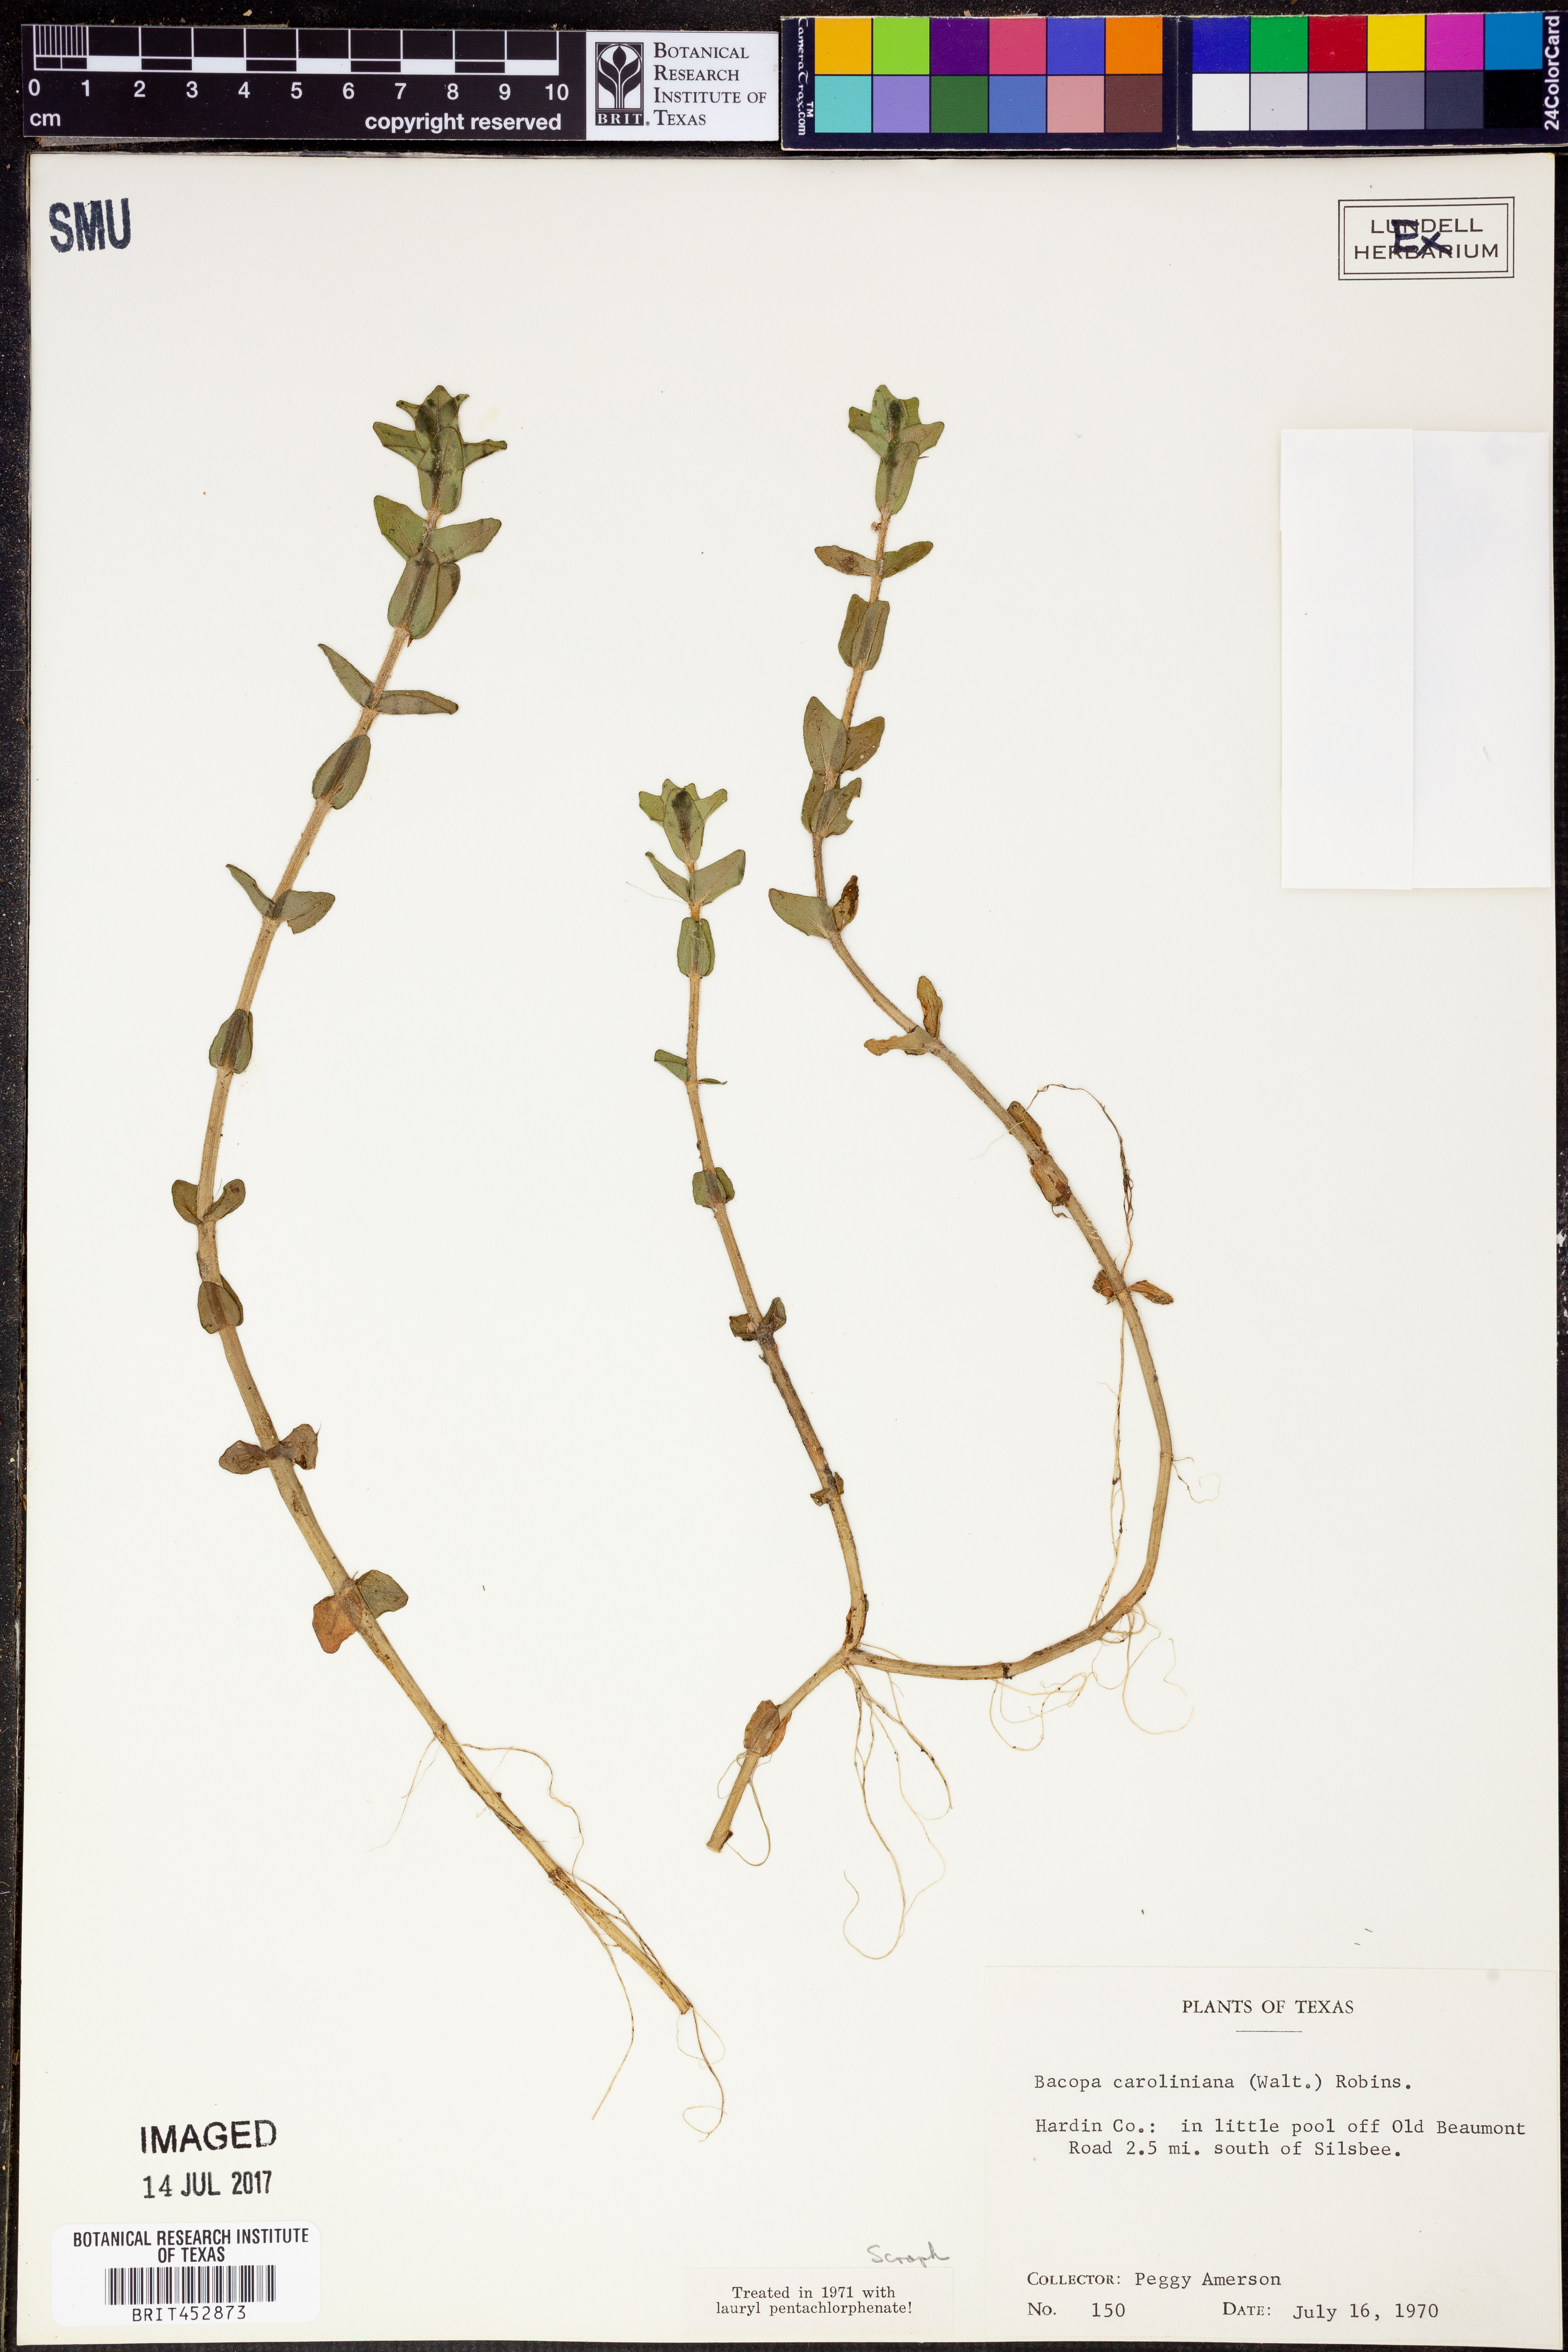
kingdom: Plantae
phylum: Tracheophyta
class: Magnoliopsida
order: Lamiales
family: Plantaginaceae
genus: Bacopa
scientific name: Bacopa caroliniana
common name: Lemon bacopa
